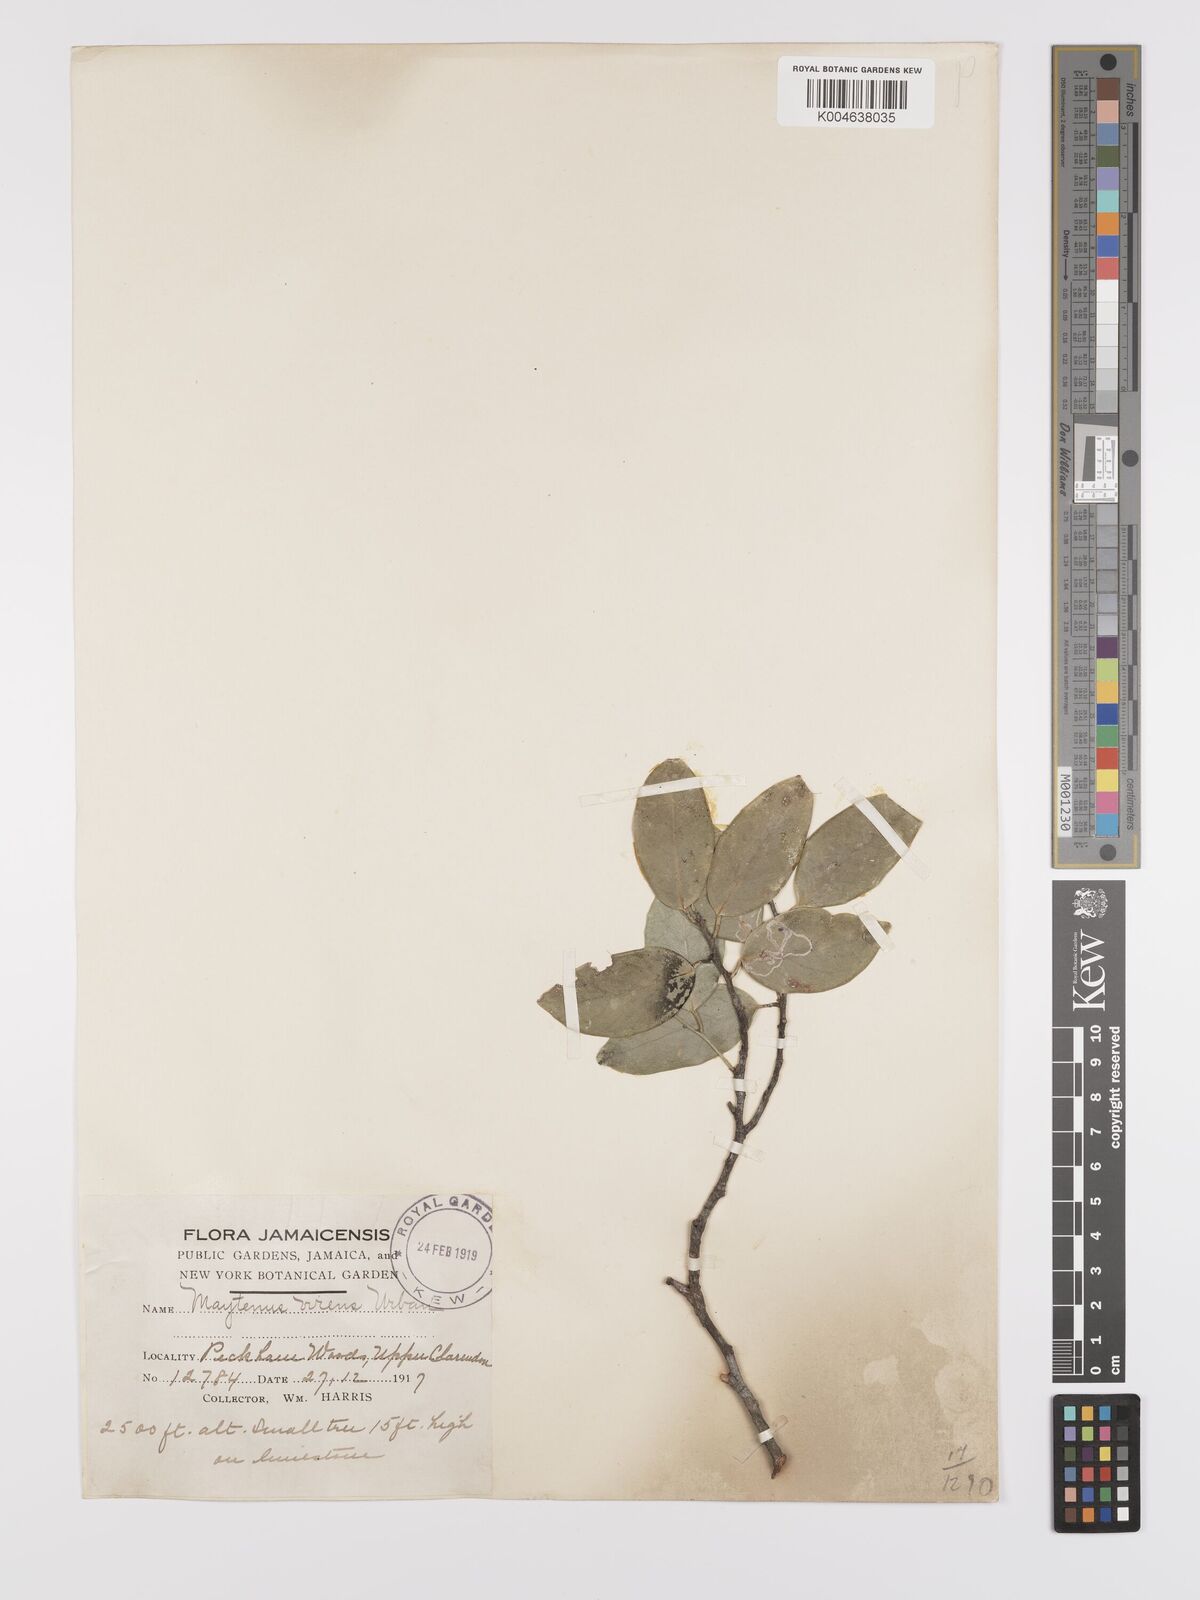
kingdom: Plantae
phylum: Tracheophyta
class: Magnoliopsida
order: Celastrales
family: Celastraceae
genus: Monteverdia
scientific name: Monteverdia virens
